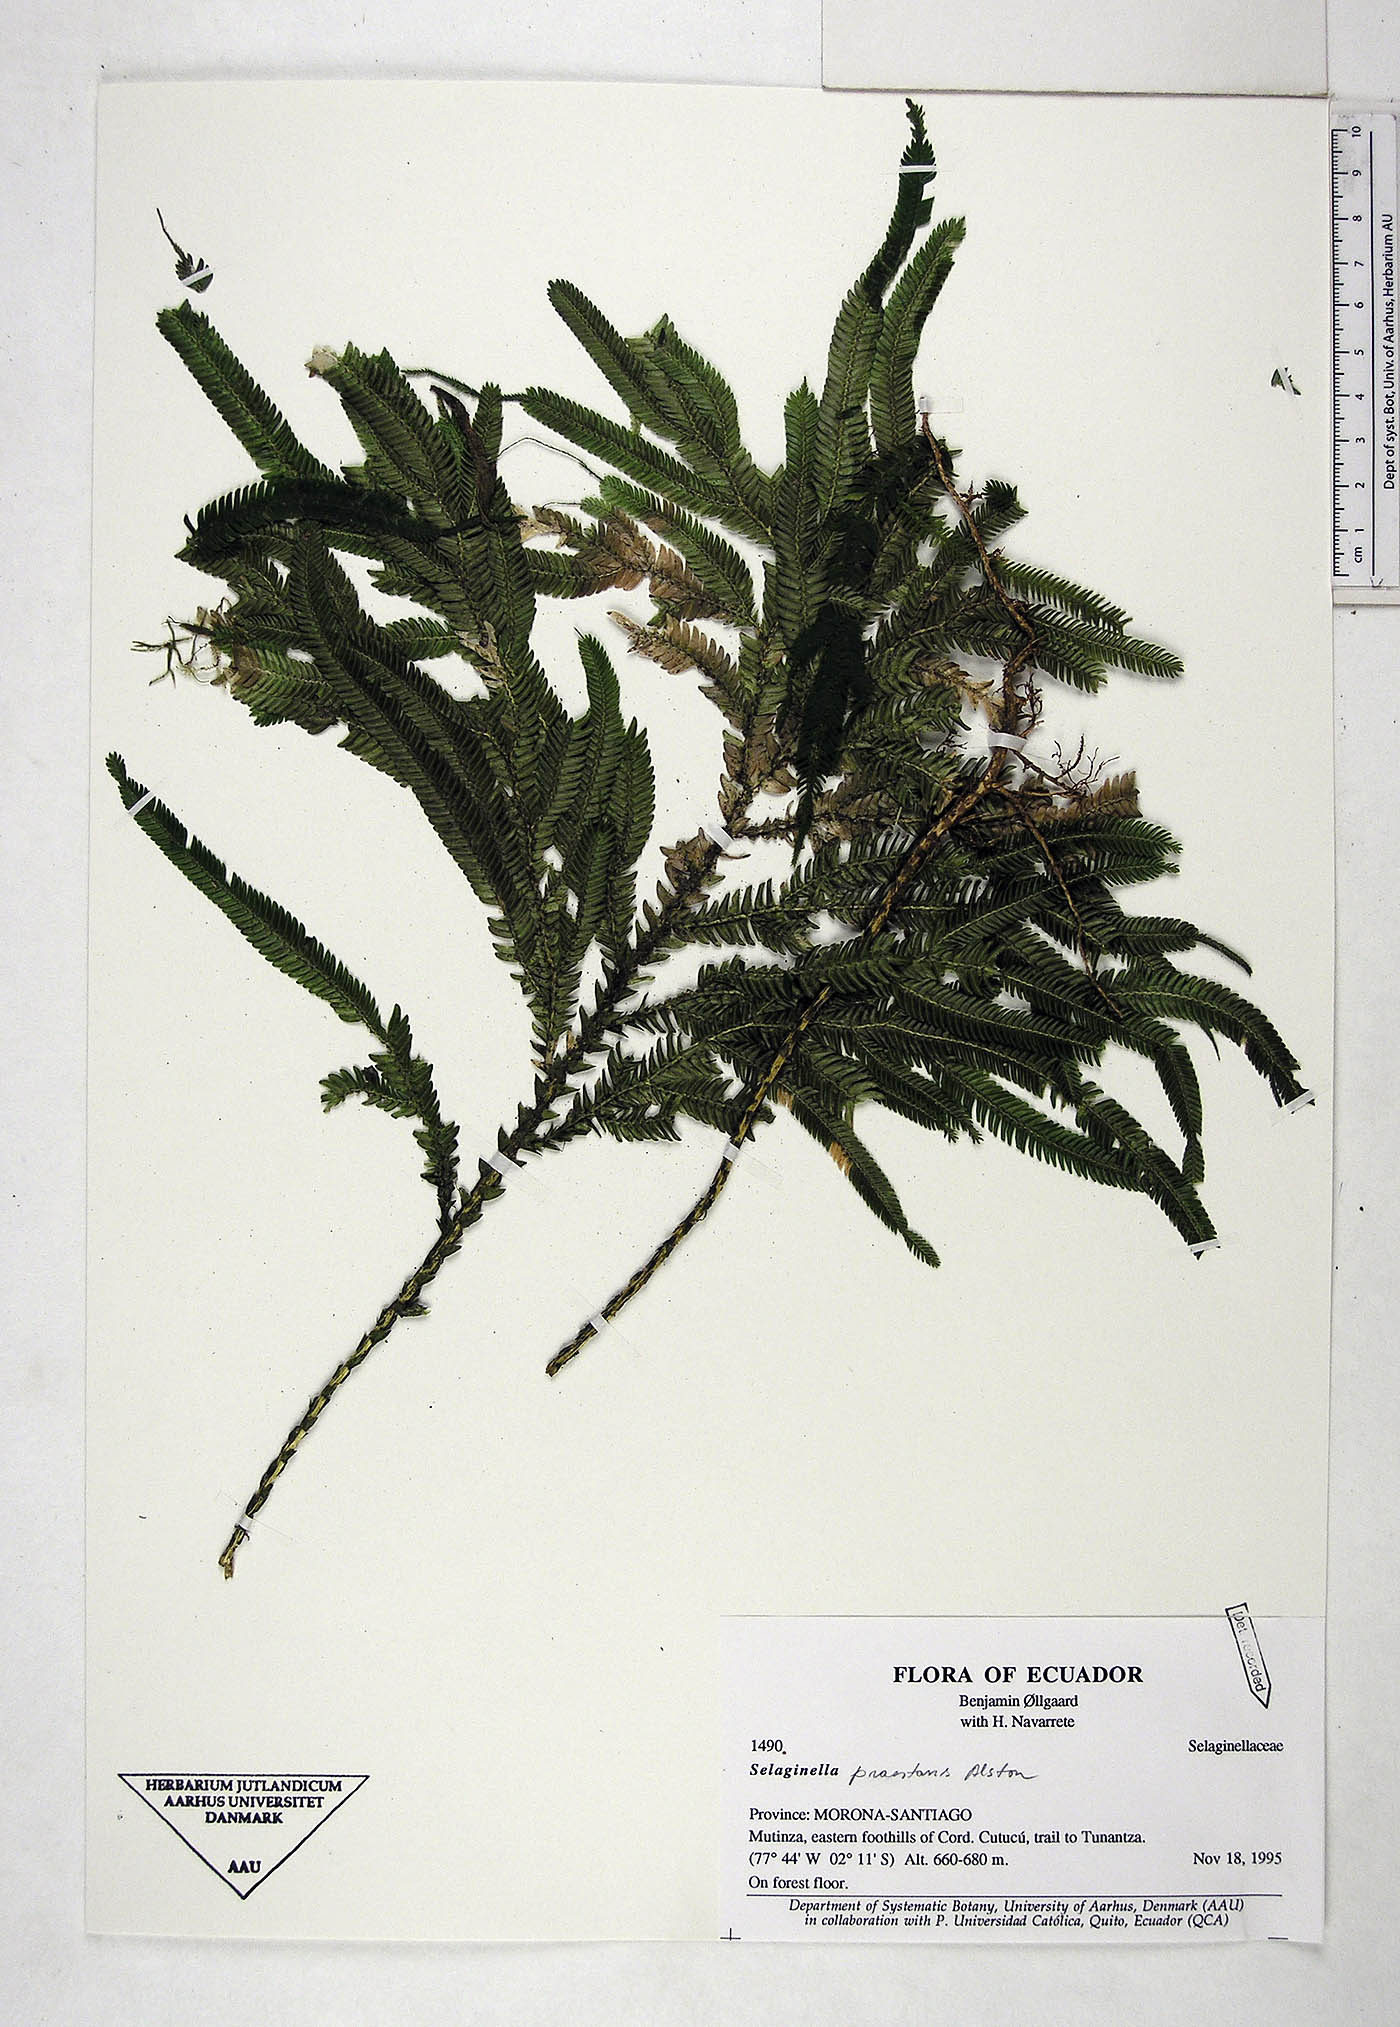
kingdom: Plantae
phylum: Tracheophyta
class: Lycopodiopsida
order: Selaginellales
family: Selaginellaceae
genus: Selaginella
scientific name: Selaginella praestans
